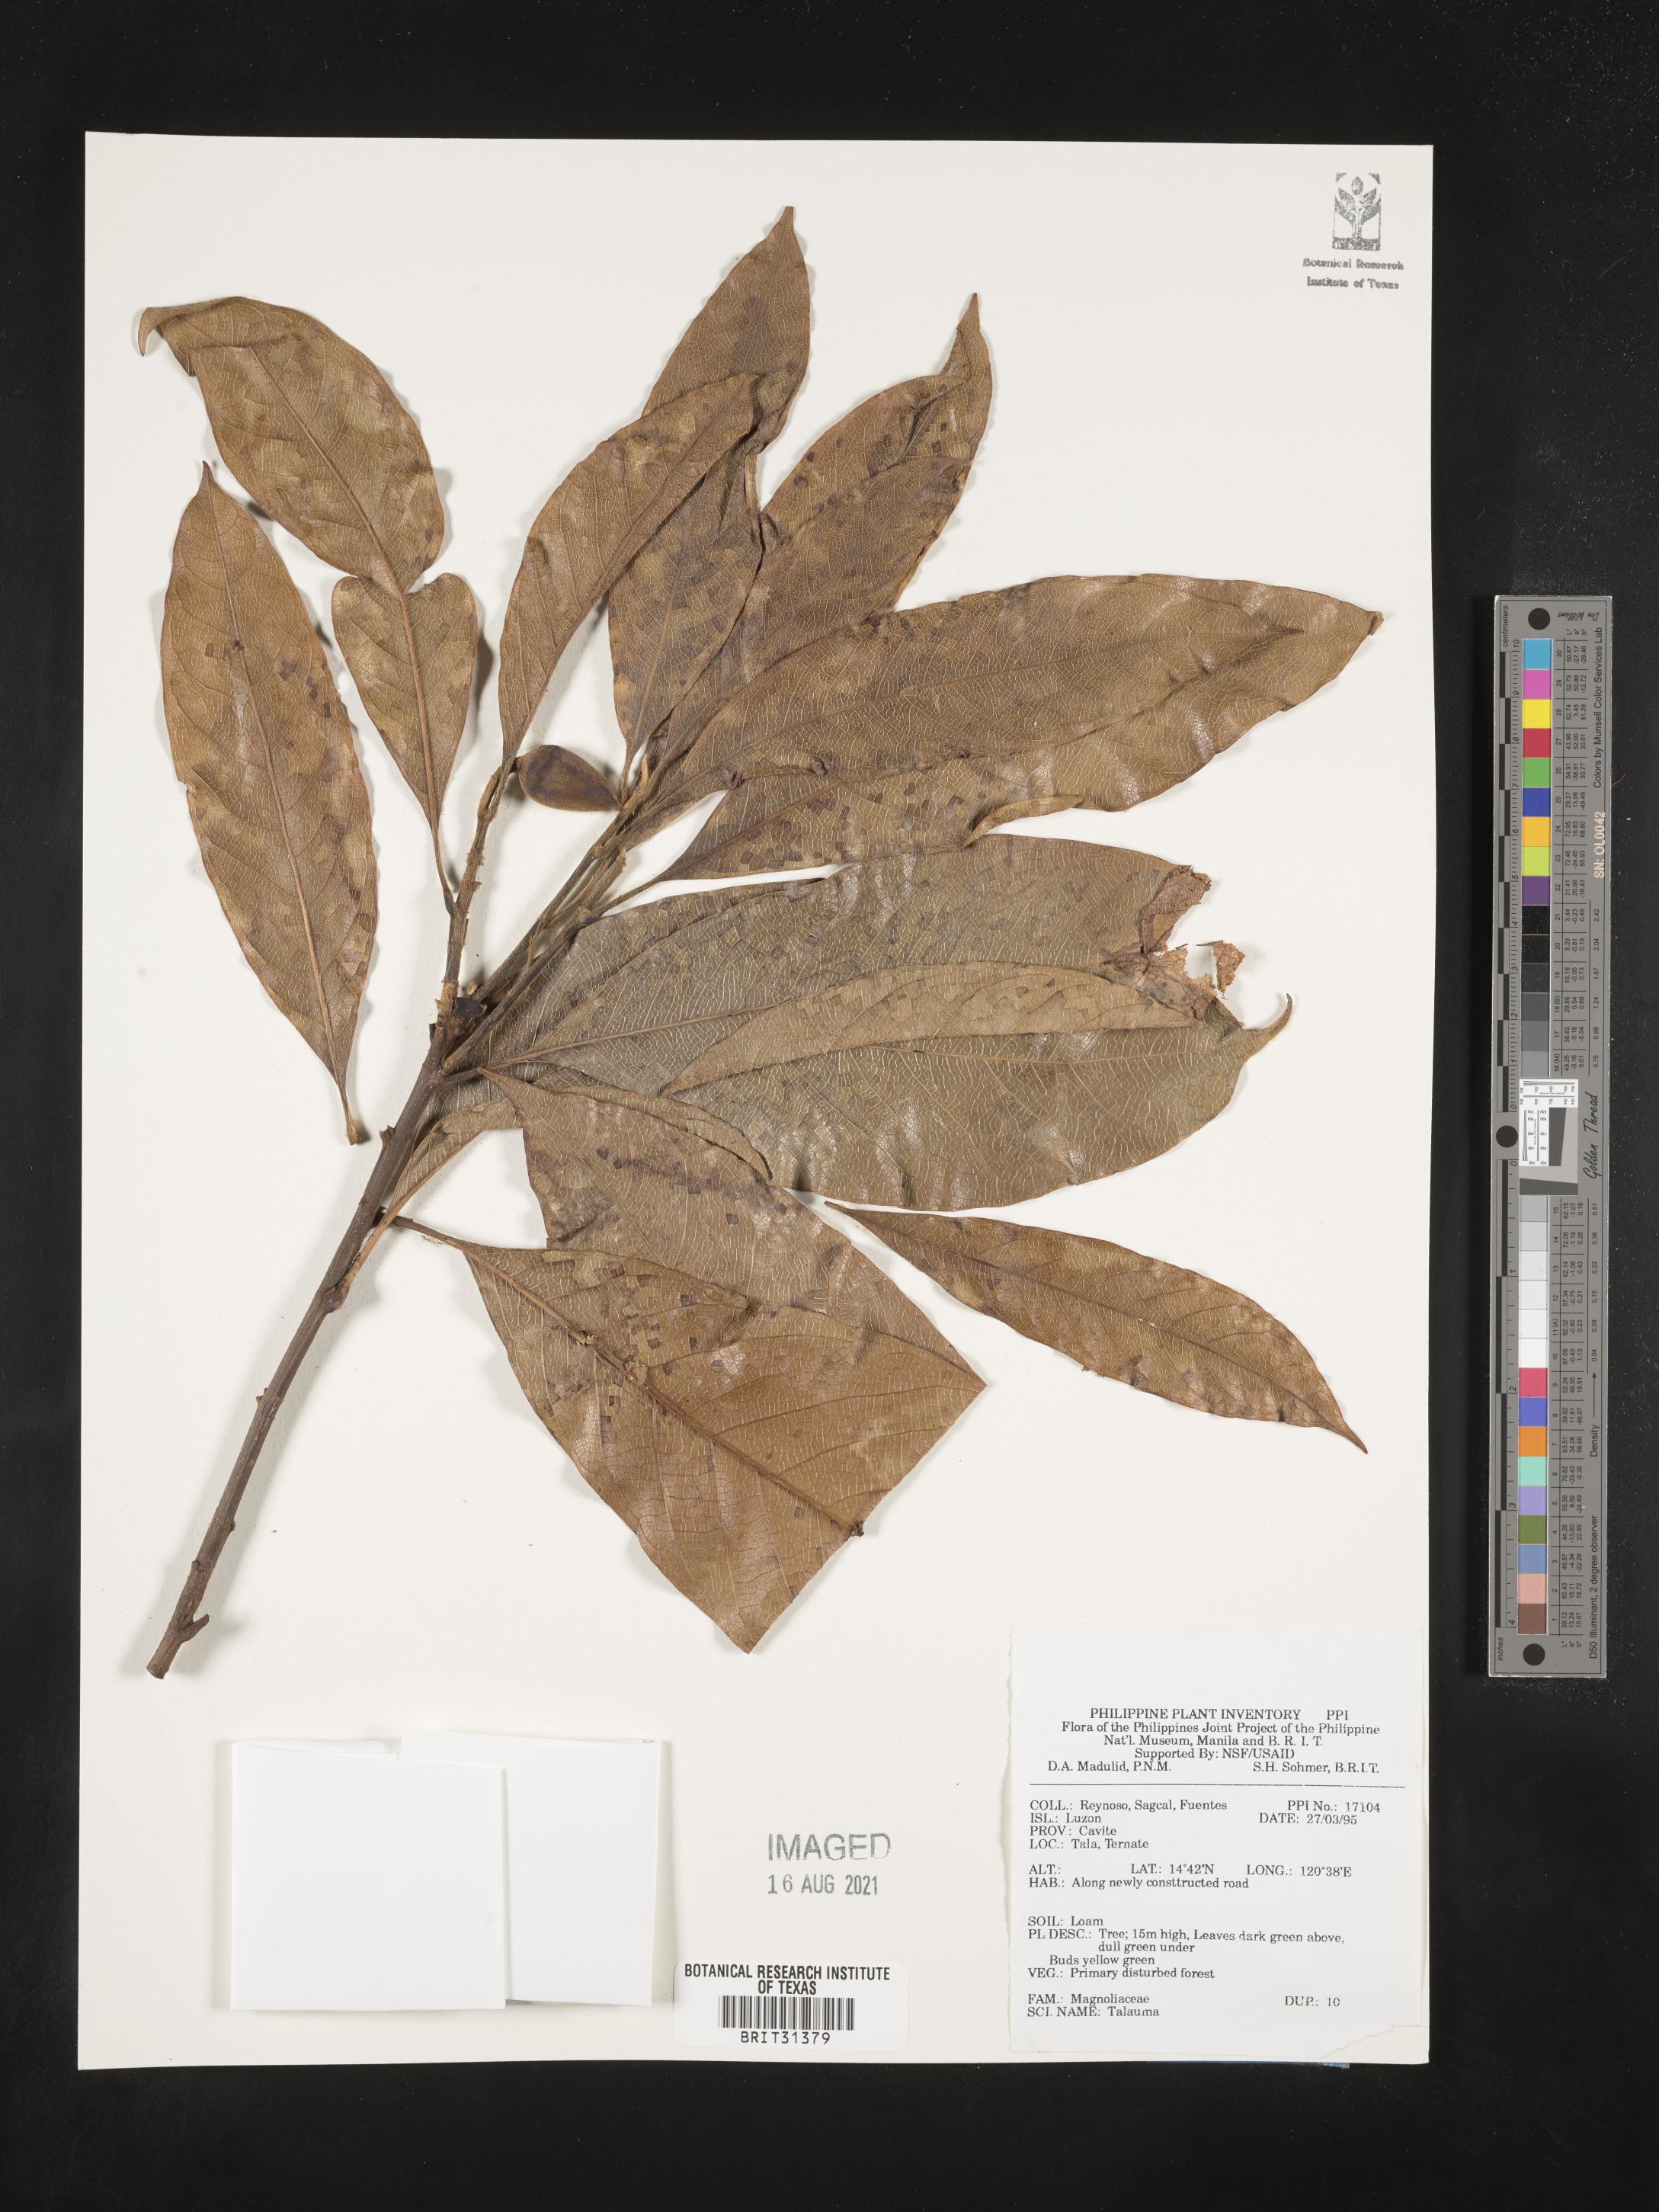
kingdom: Plantae
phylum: Tracheophyta
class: Magnoliopsida
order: Magnoliales
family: Magnoliaceae
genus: Magnolia
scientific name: Magnolia Talauma spec
